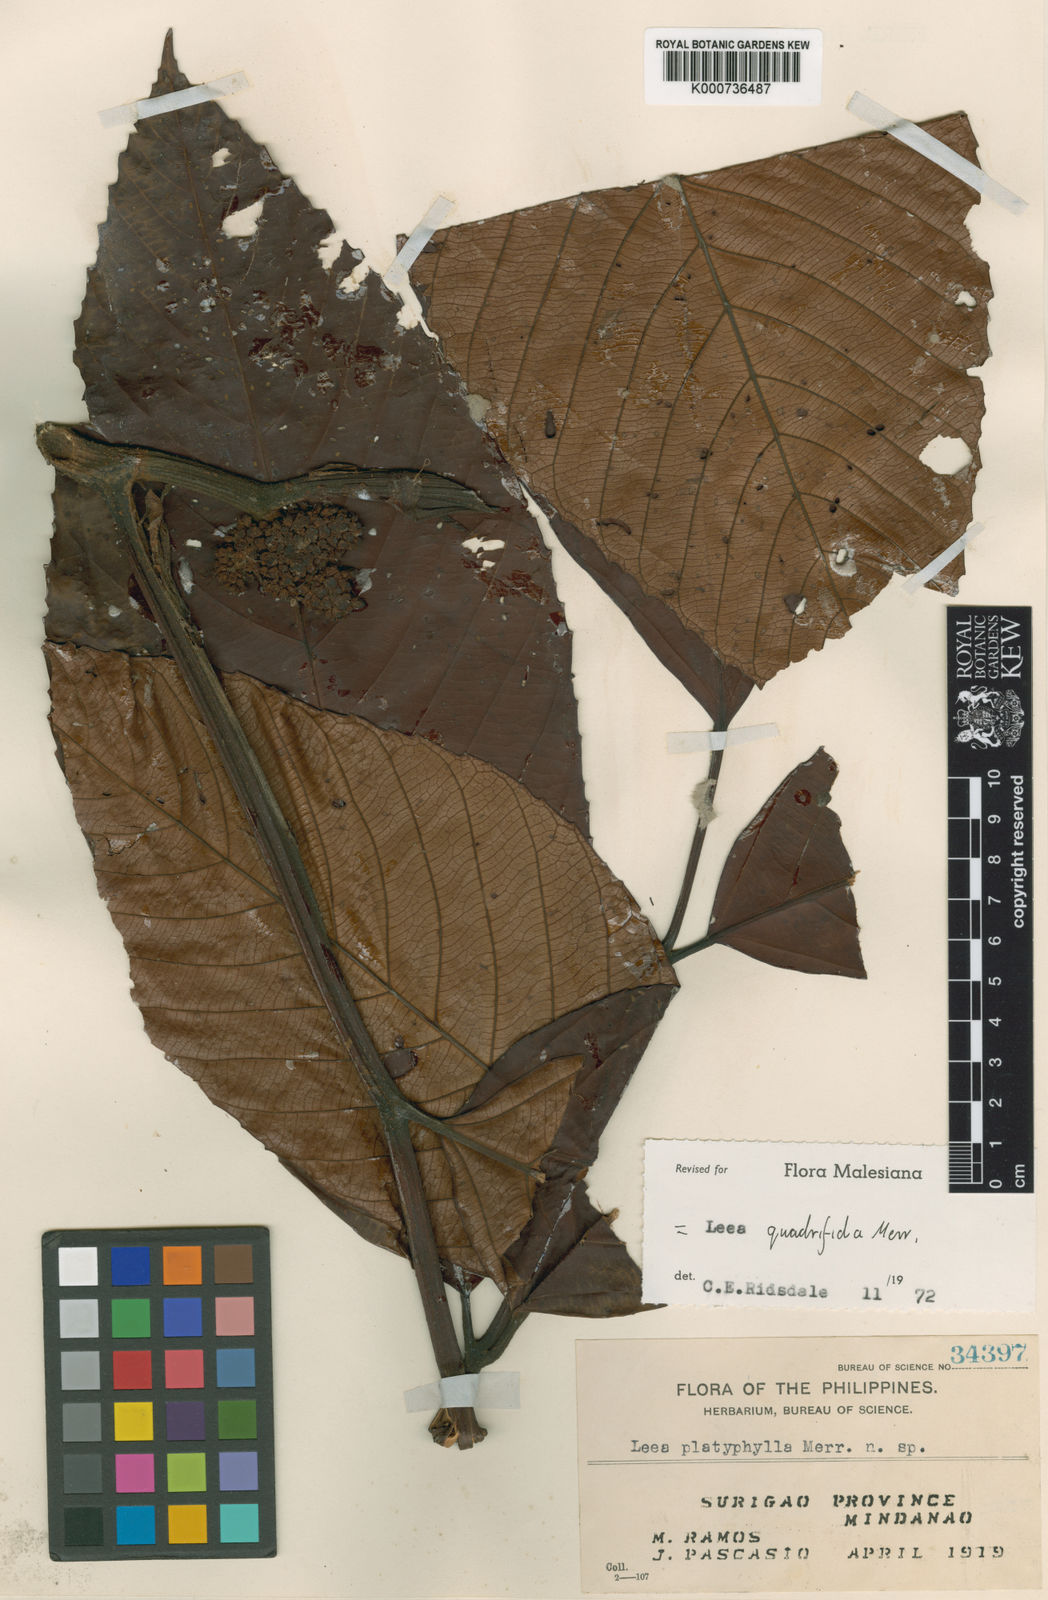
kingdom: Plantae
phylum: Tracheophyta
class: Magnoliopsida
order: Vitales
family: Vitaceae
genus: Leea
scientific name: Leea quadrifida
